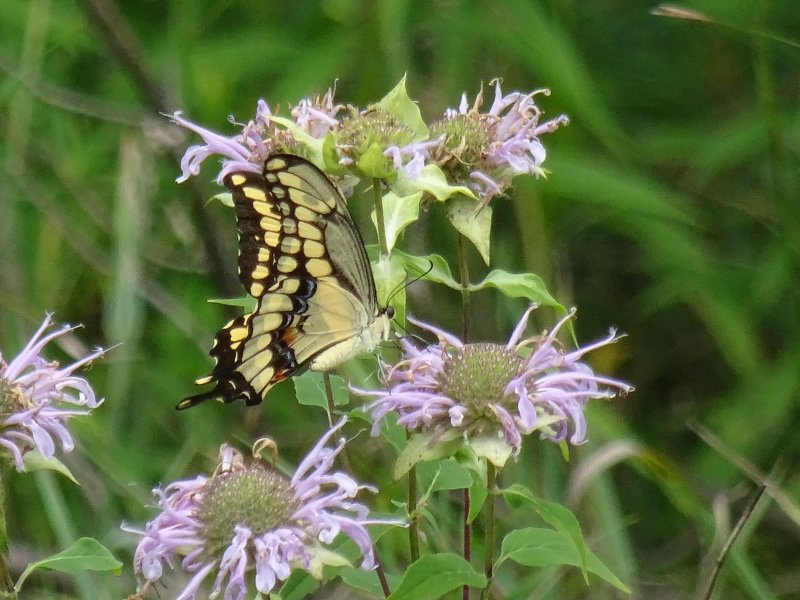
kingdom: Animalia
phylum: Arthropoda
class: Insecta
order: Lepidoptera
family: Papilionidae
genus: Papilio
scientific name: Papilio cresphontes
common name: Eastern Giant Swallowtail
